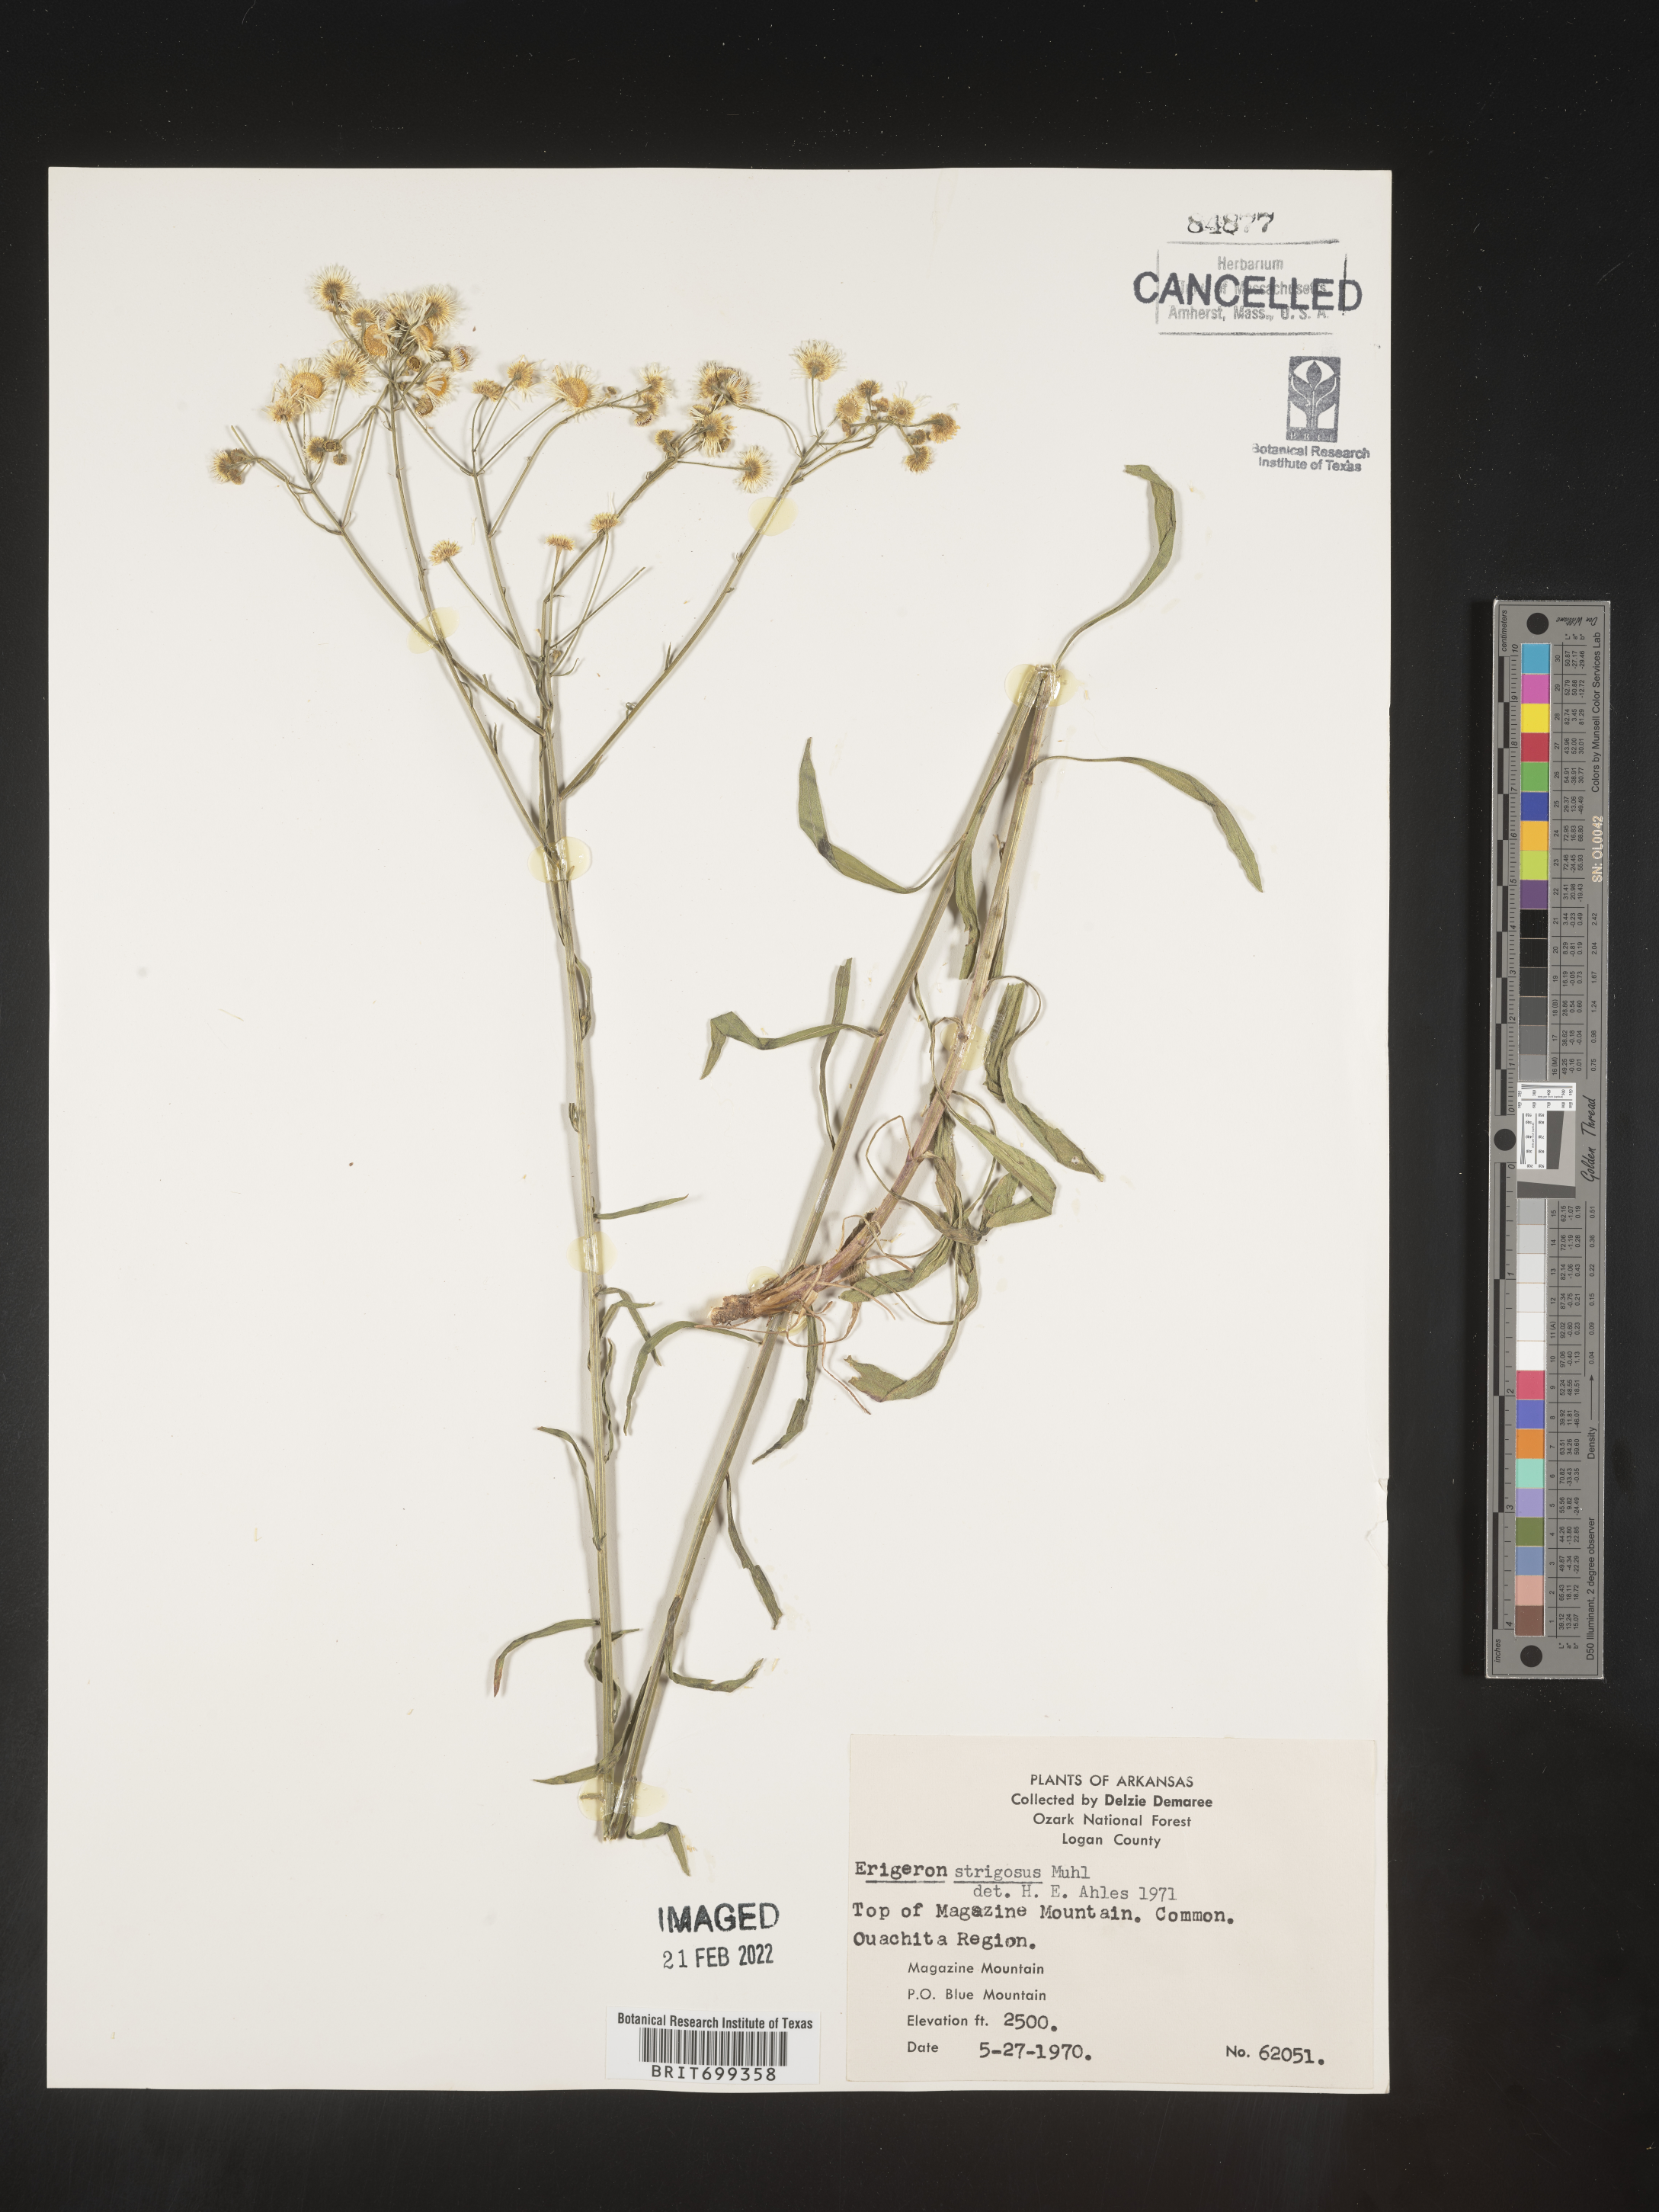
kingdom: Plantae
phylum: Tracheophyta
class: Magnoliopsida
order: Asterales
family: Asteraceae
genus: Erigeron
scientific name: Erigeron strigosus
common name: Common eastern fleabane
